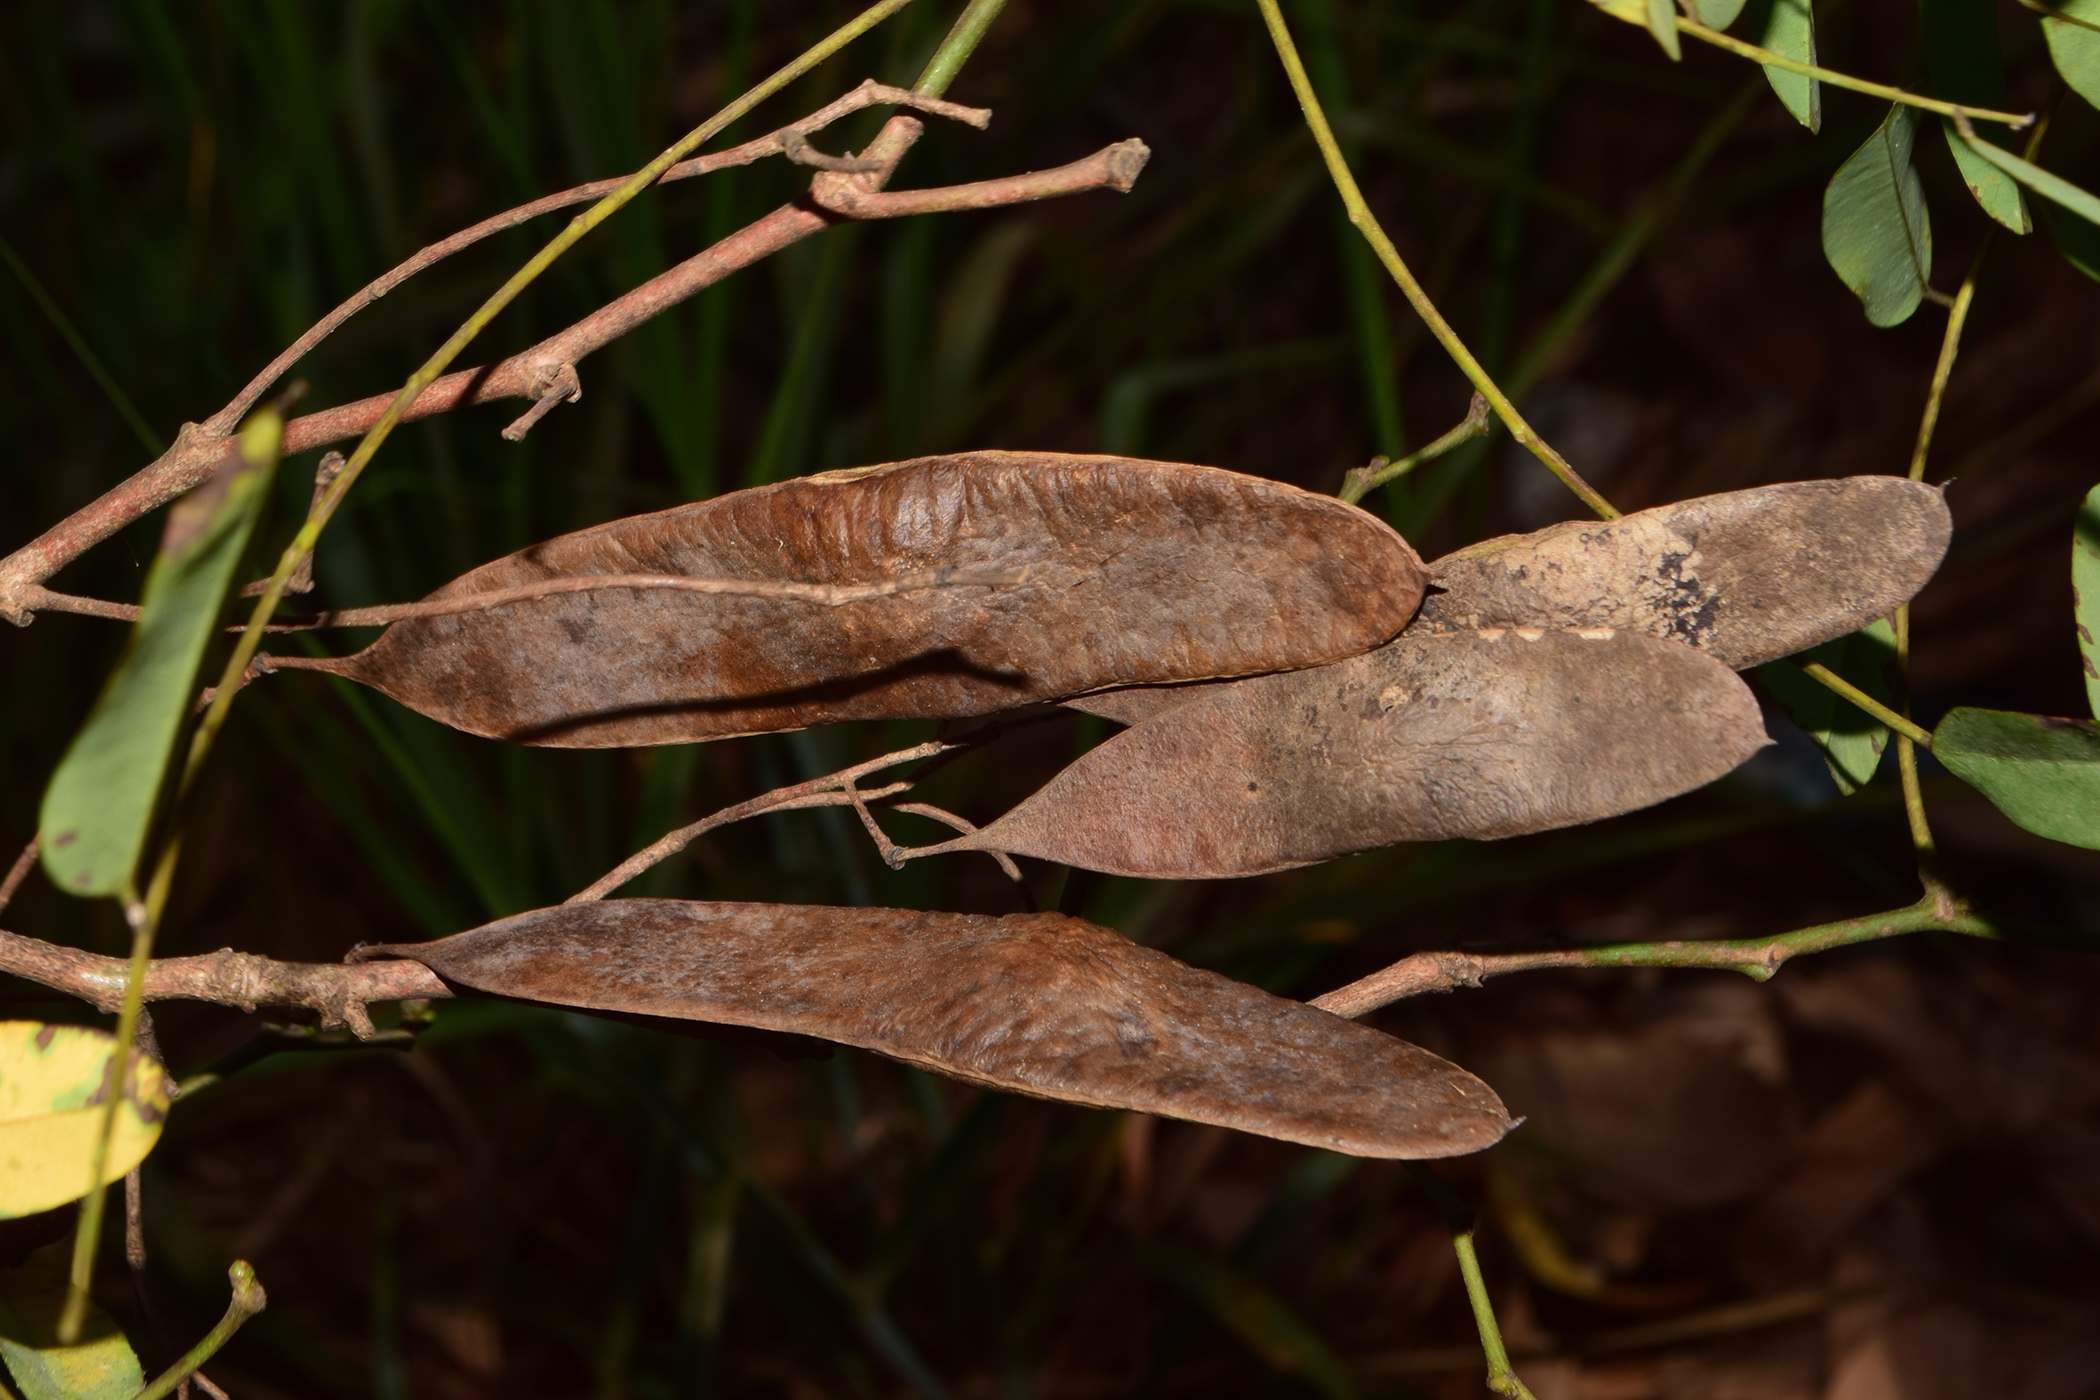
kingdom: Plantae
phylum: Tracheophyta
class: Magnoliopsida
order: Fabales
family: Fabaceae
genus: Dalbergia
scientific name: Dalbergia horrida
